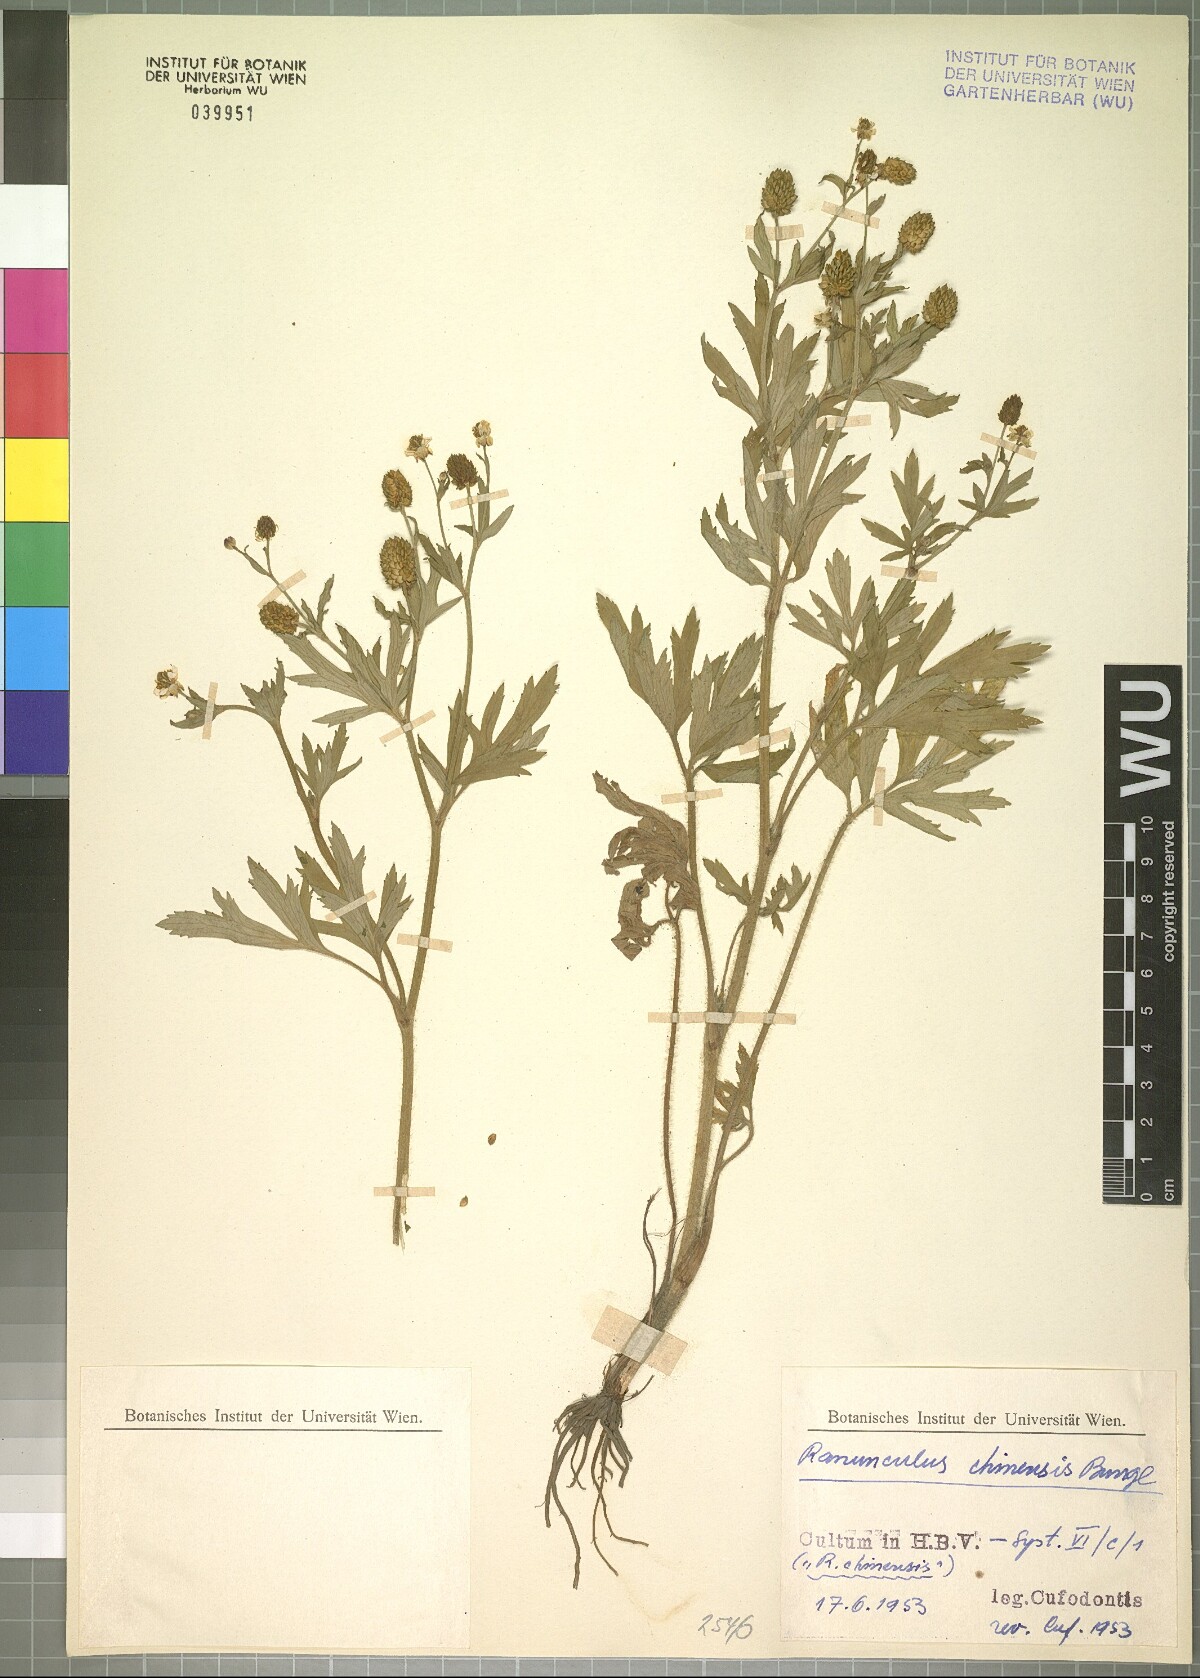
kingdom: Plantae
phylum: Tracheophyta
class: Magnoliopsida
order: Ranunculales
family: Ranunculaceae
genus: Ranunculus
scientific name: Ranunculus chinensis
